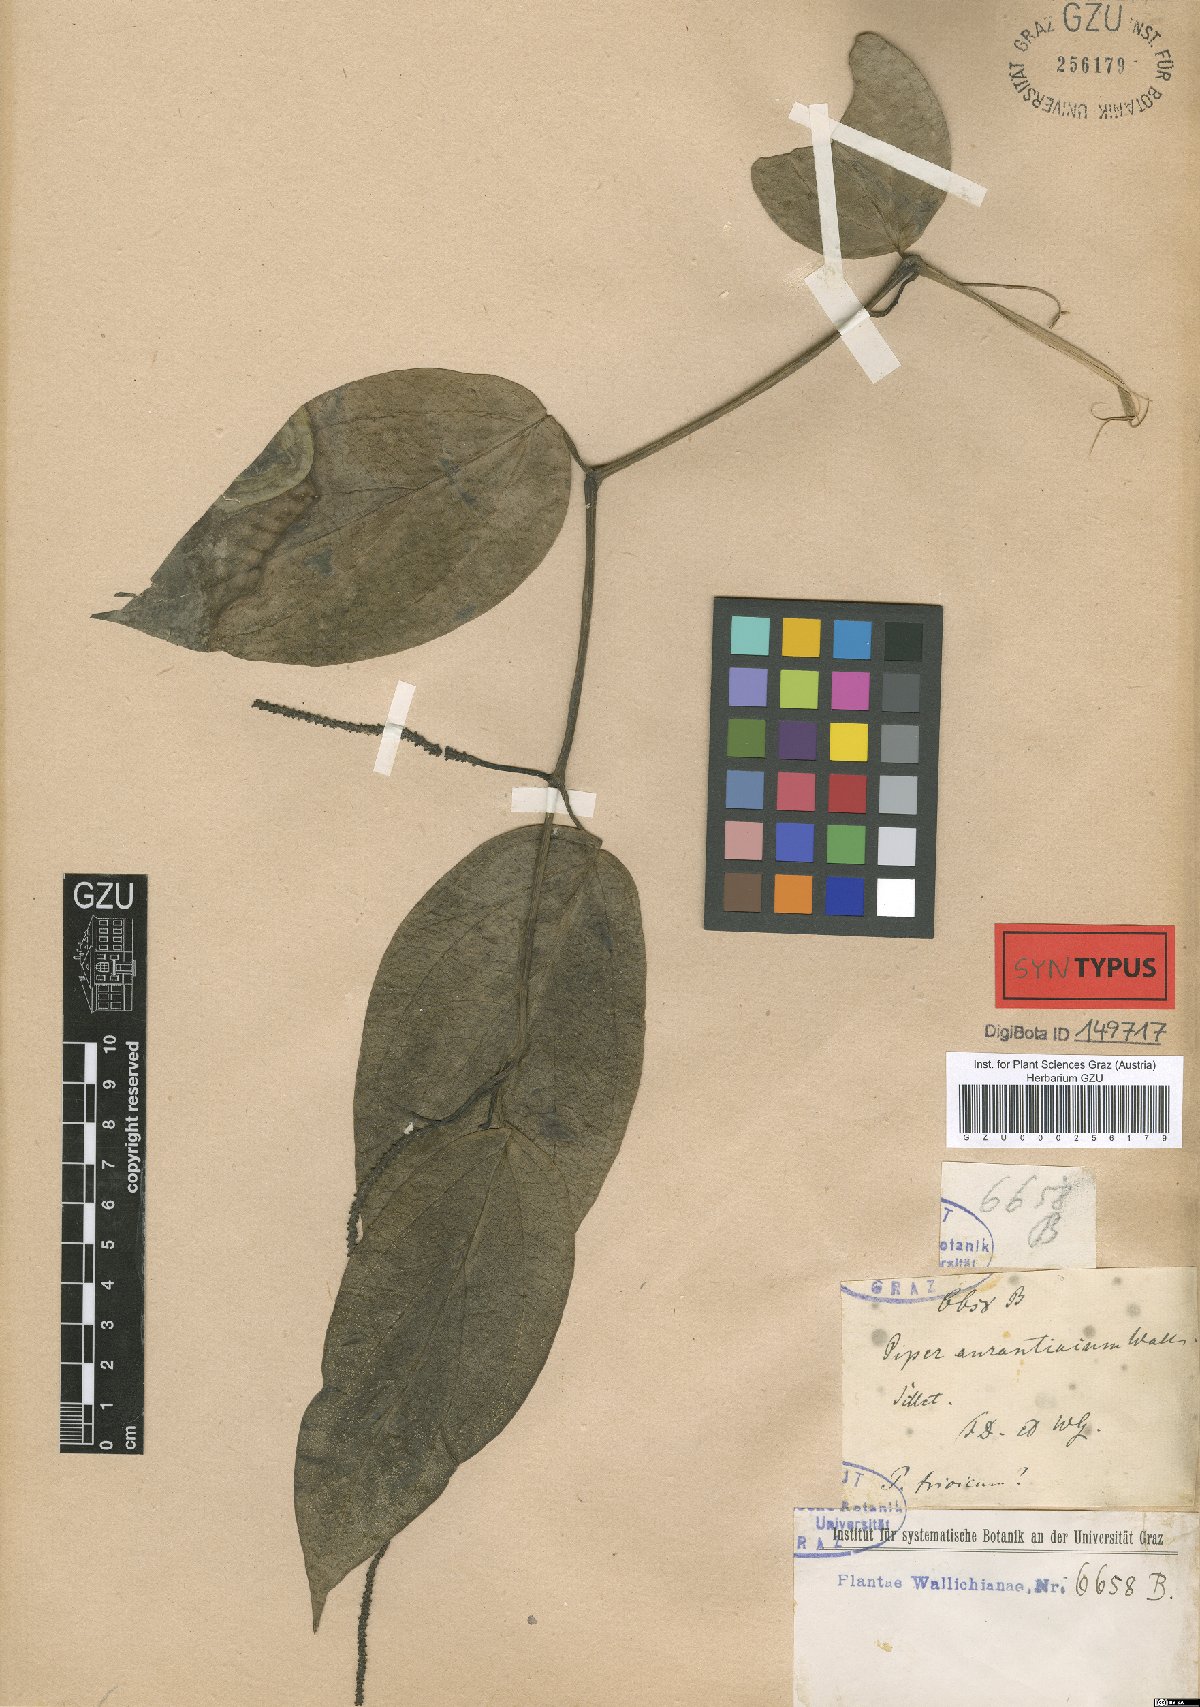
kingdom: Plantae
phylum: Tracheophyta
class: Magnoliopsida
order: Piperales
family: Piperaceae
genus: Piper
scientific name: Piper wallichii
